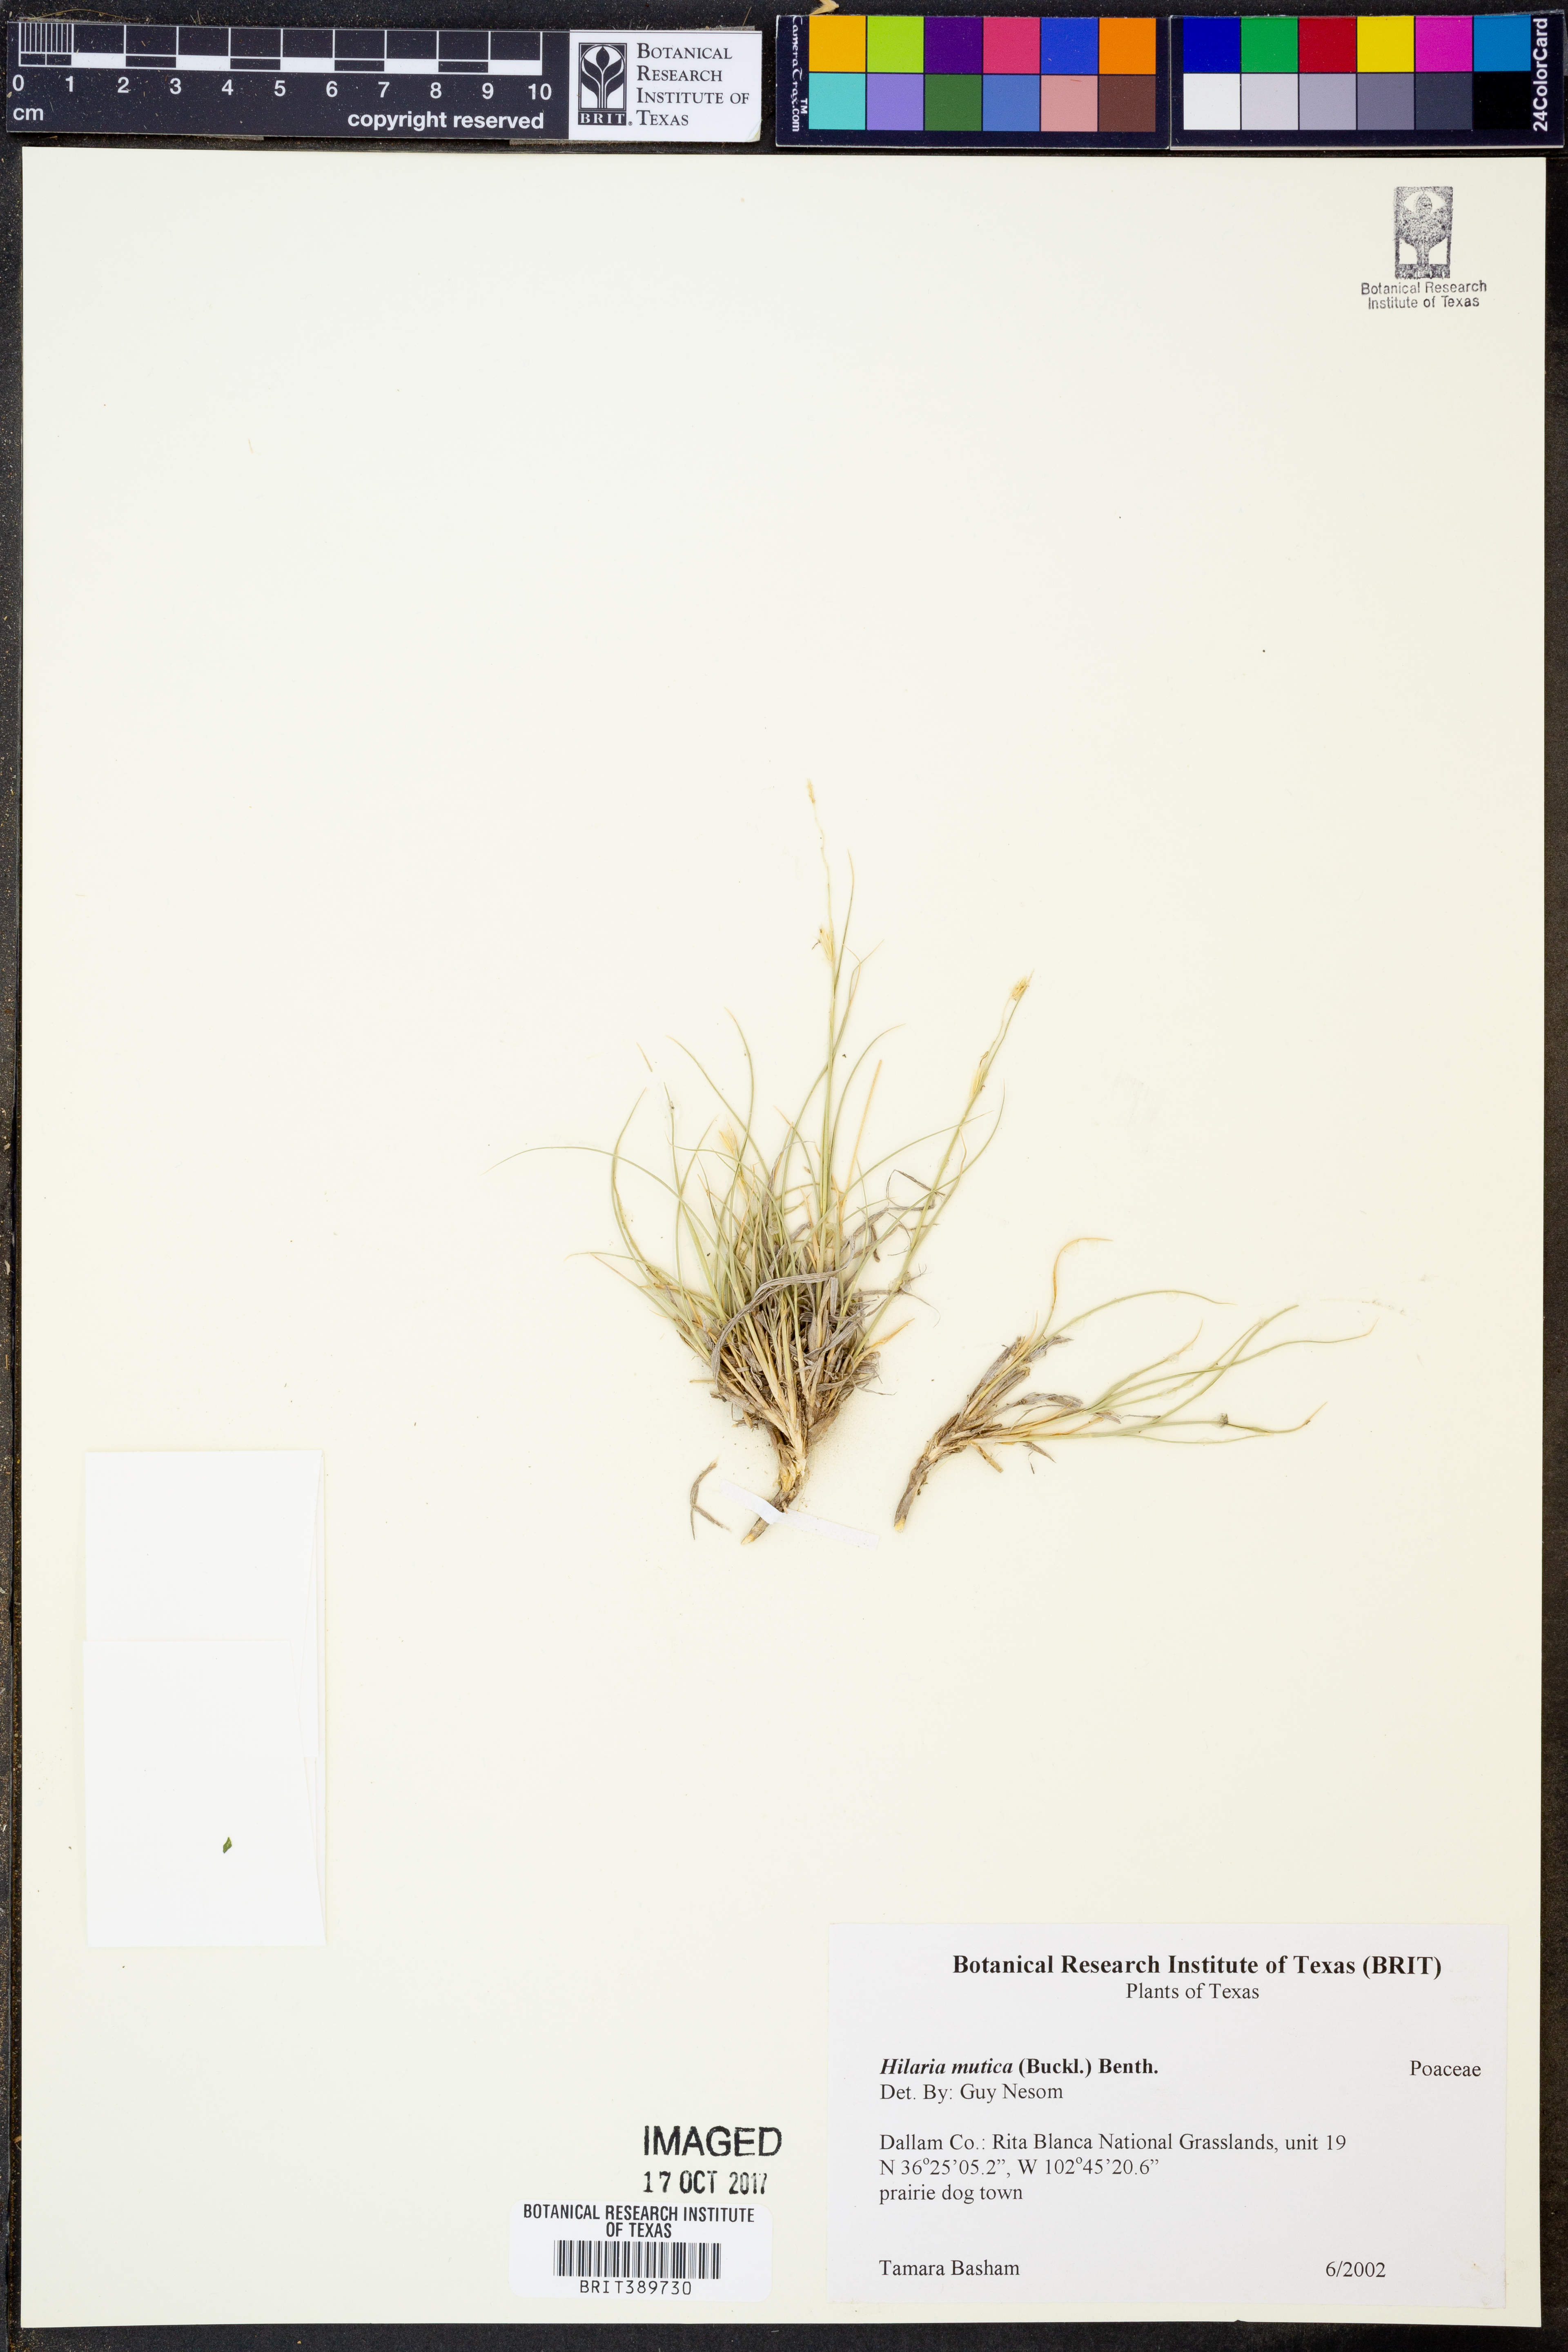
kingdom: Plantae
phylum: Tracheophyta
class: Liliopsida
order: Poales
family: Poaceae
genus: Hilaria
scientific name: Hilaria mutica
